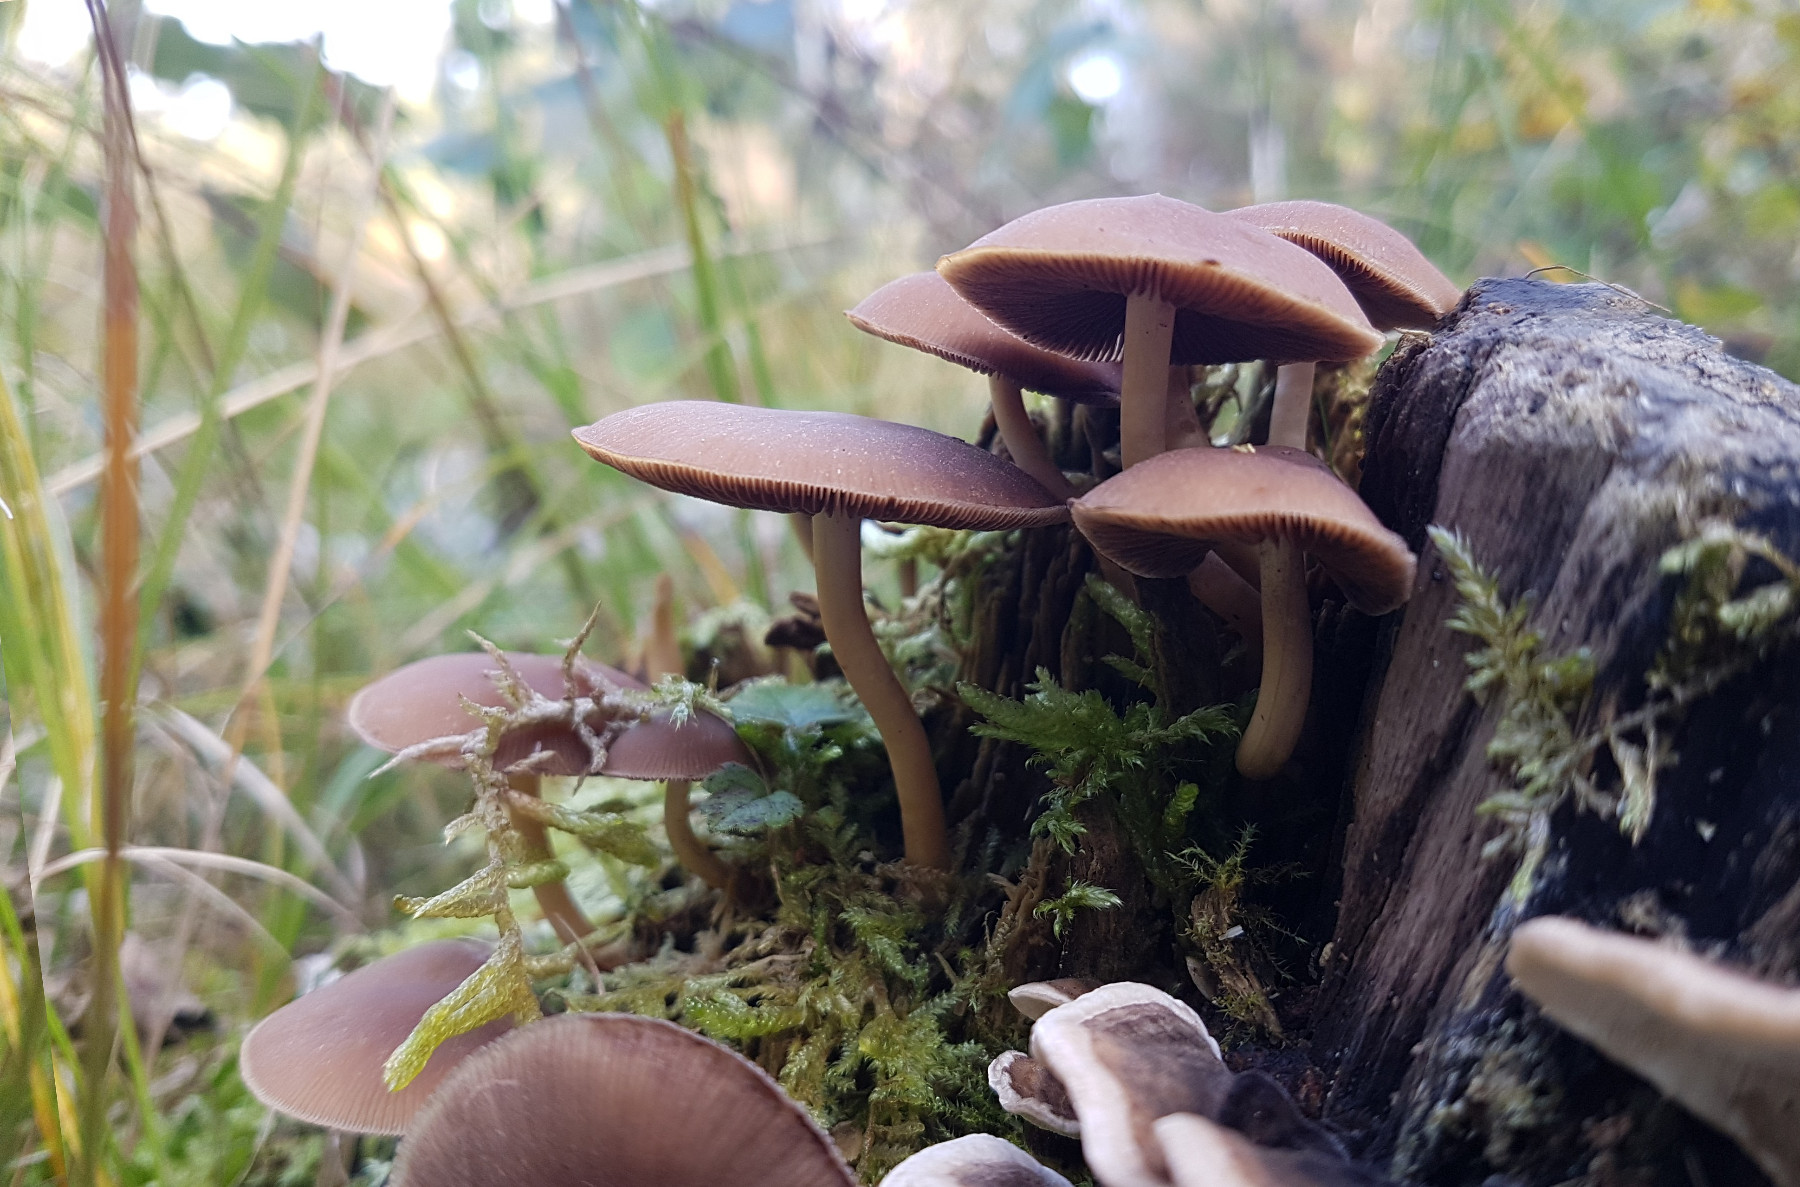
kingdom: Fungi
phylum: Basidiomycota
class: Agaricomycetes
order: Agaricales
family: Psathyrellaceae
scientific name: Psathyrellaceae
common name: mørkhatfamilien
